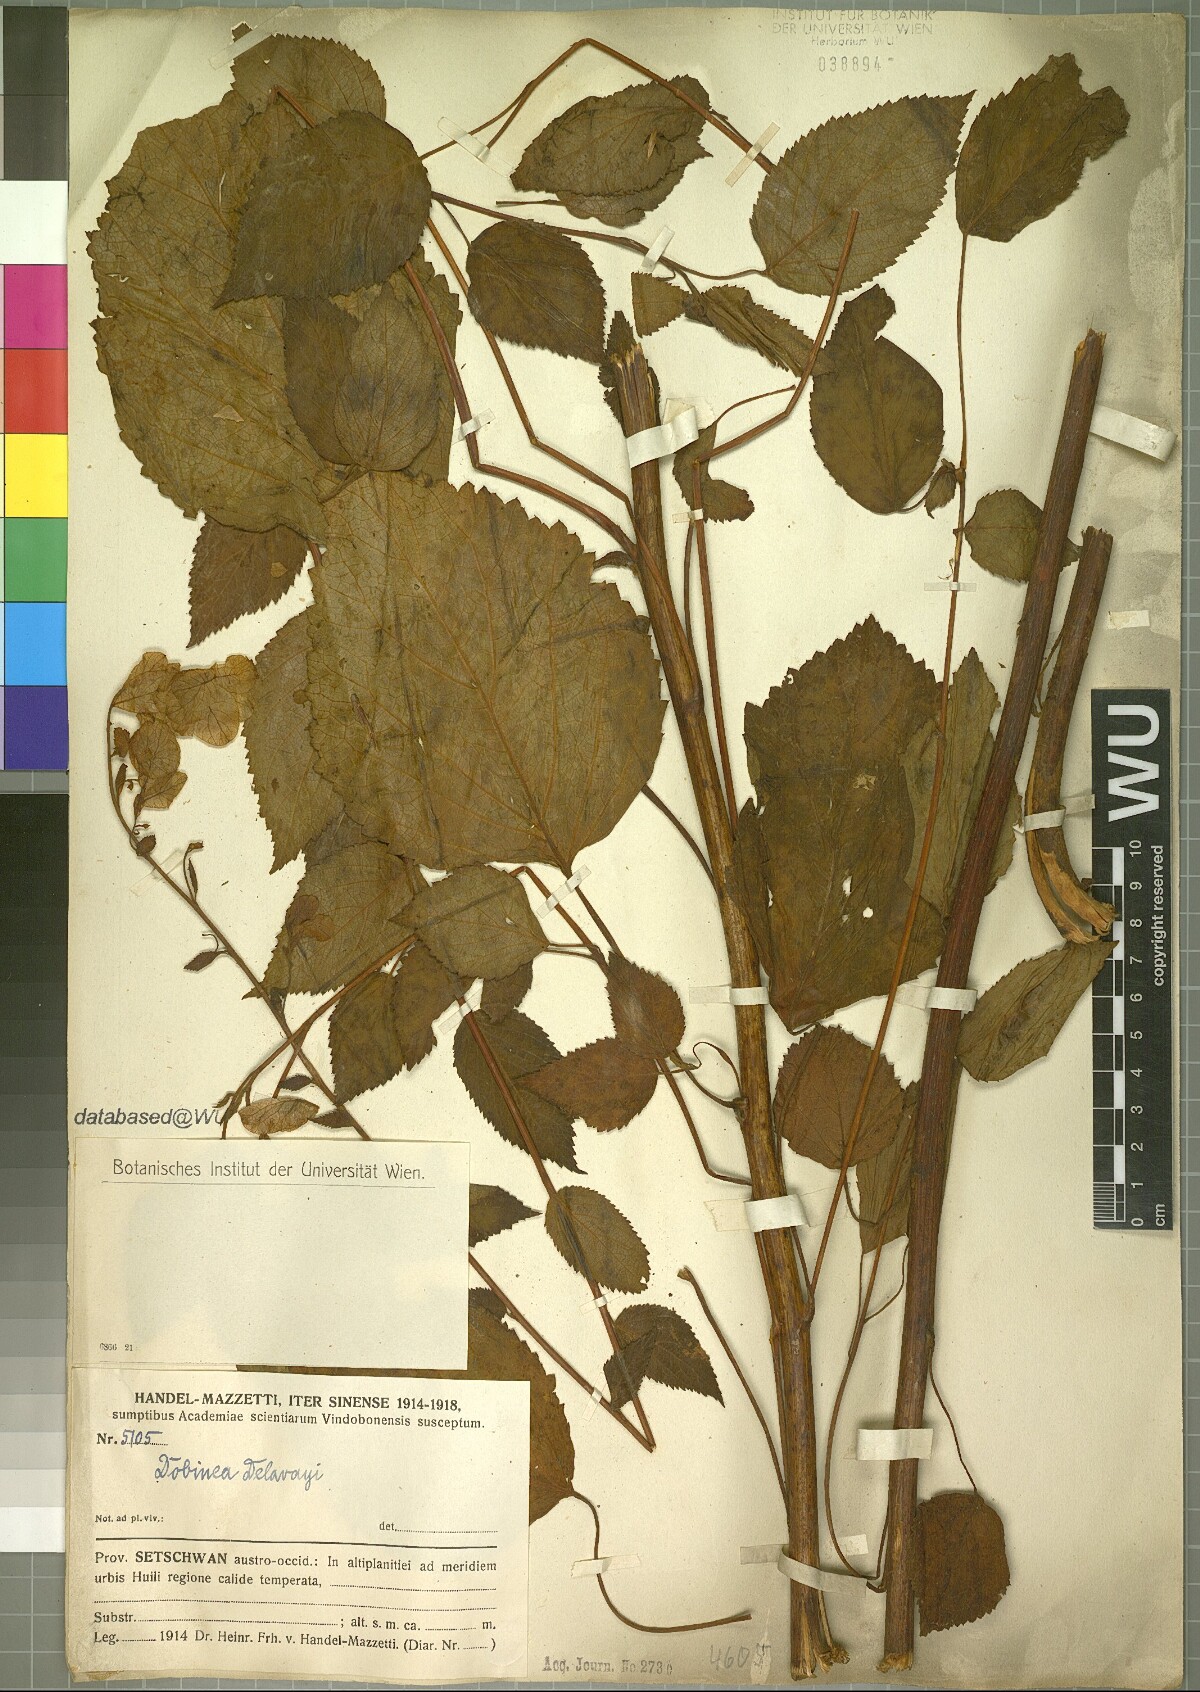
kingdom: Plantae
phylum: Tracheophyta
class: Magnoliopsida
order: Sapindales
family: Anacardiaceae
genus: Dobinea
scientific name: Dobinea delavayi
